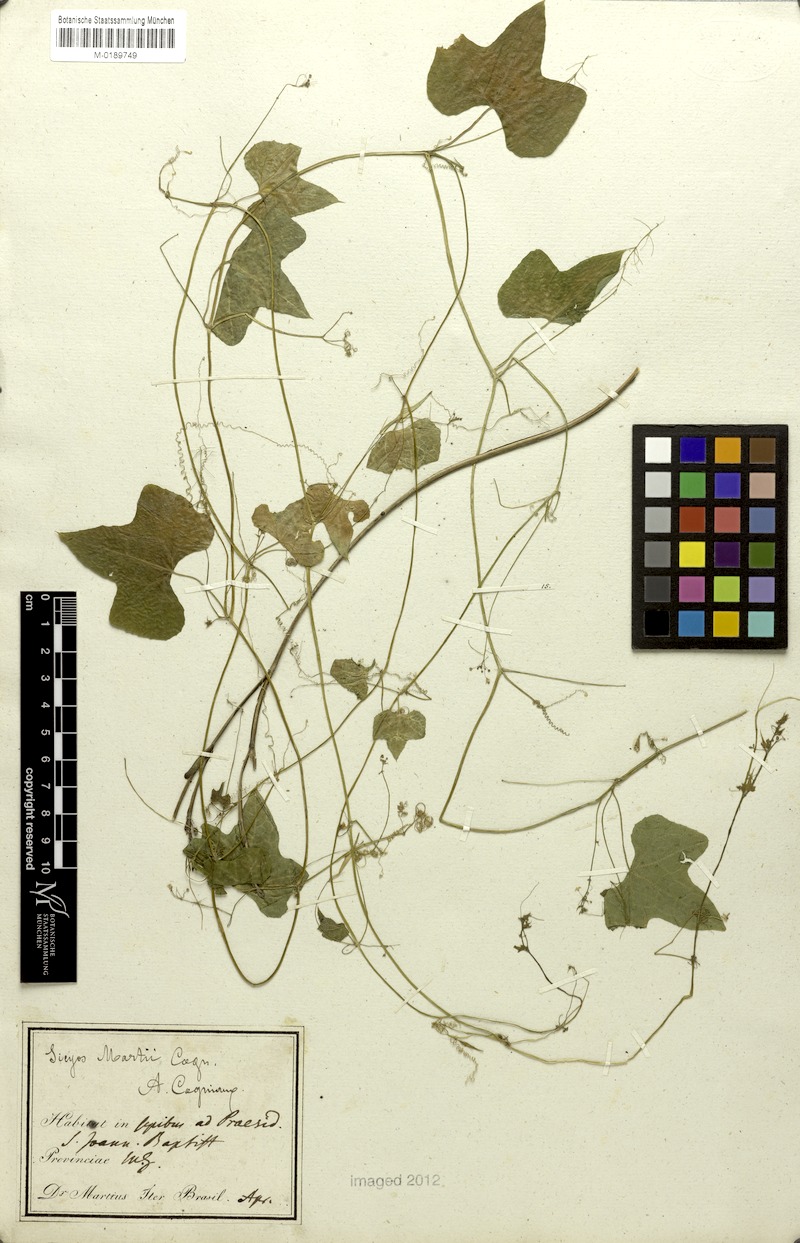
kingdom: Plantae
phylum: Tracheophyta
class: Magnoliopsida
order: Cucurbitales
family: Cucurbitaceae
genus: Sicyos
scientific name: Sicyos martii
